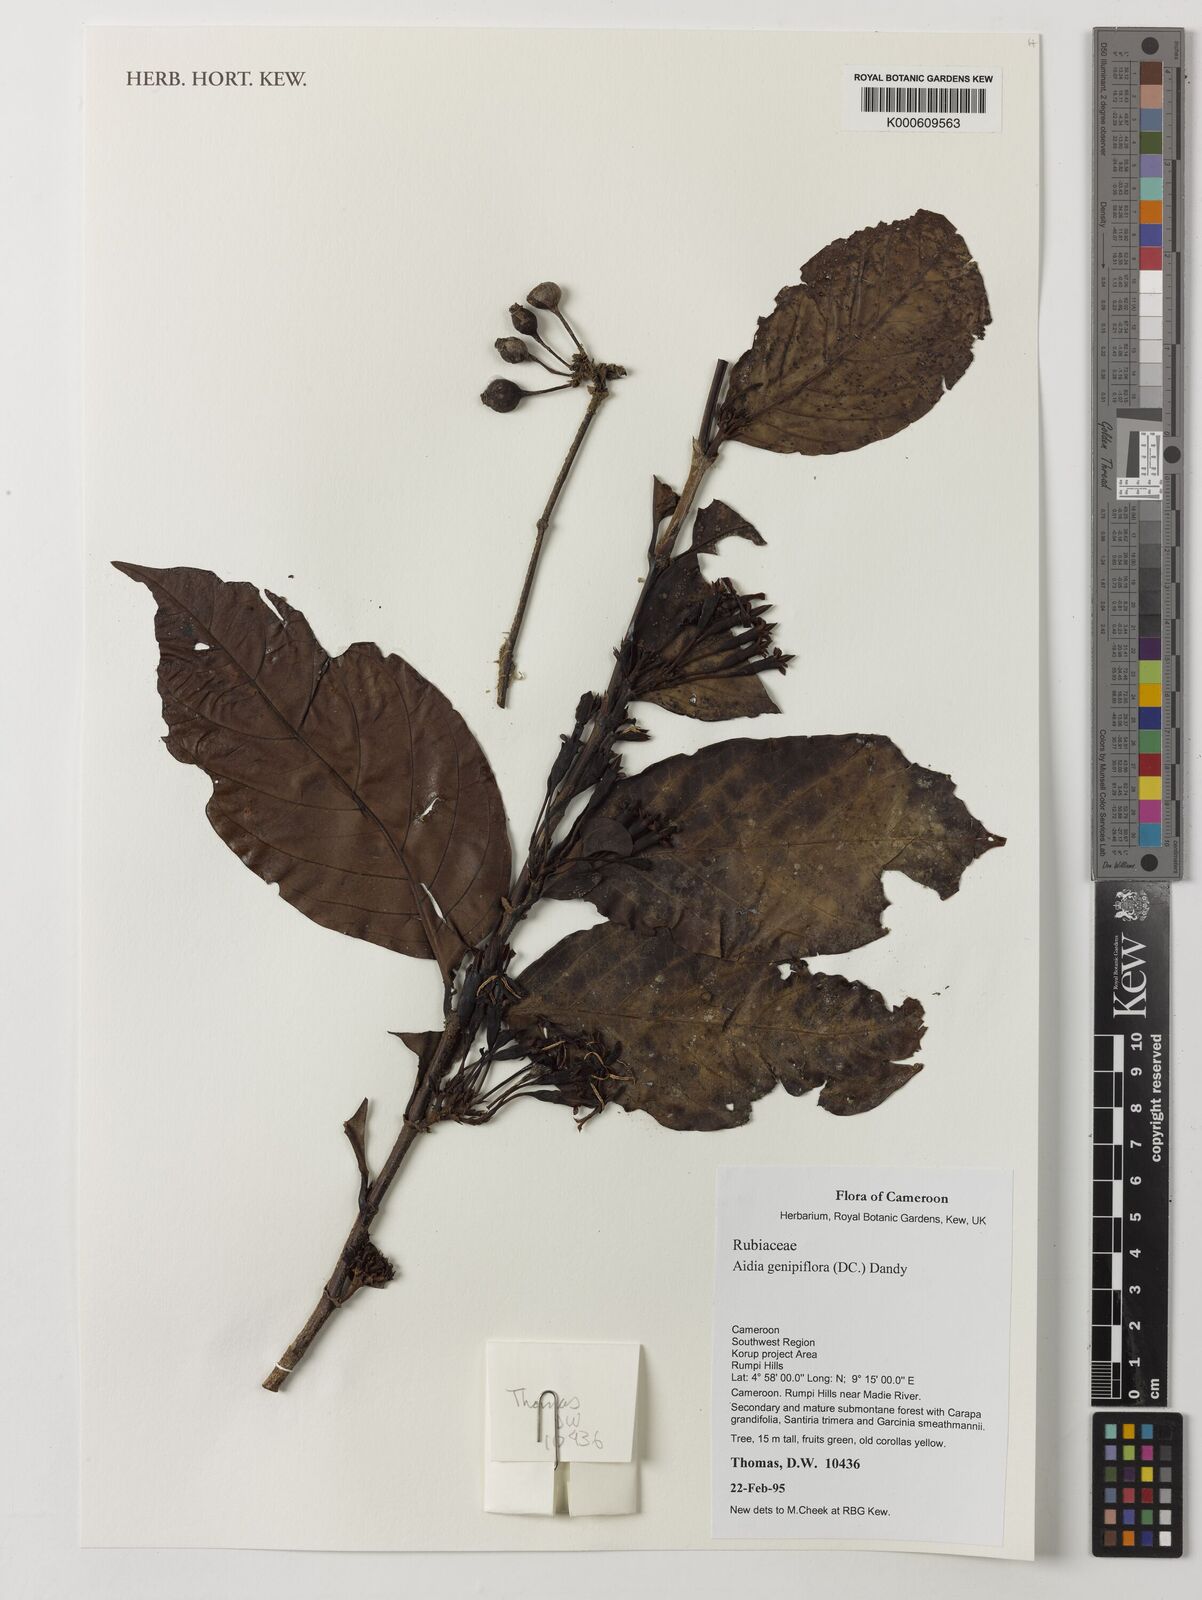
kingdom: Plantae
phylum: Tracheophyta
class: Magnoliopsida
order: Gentianales
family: Rubiaceae
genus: Aidia
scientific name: Aidia genipiflora
